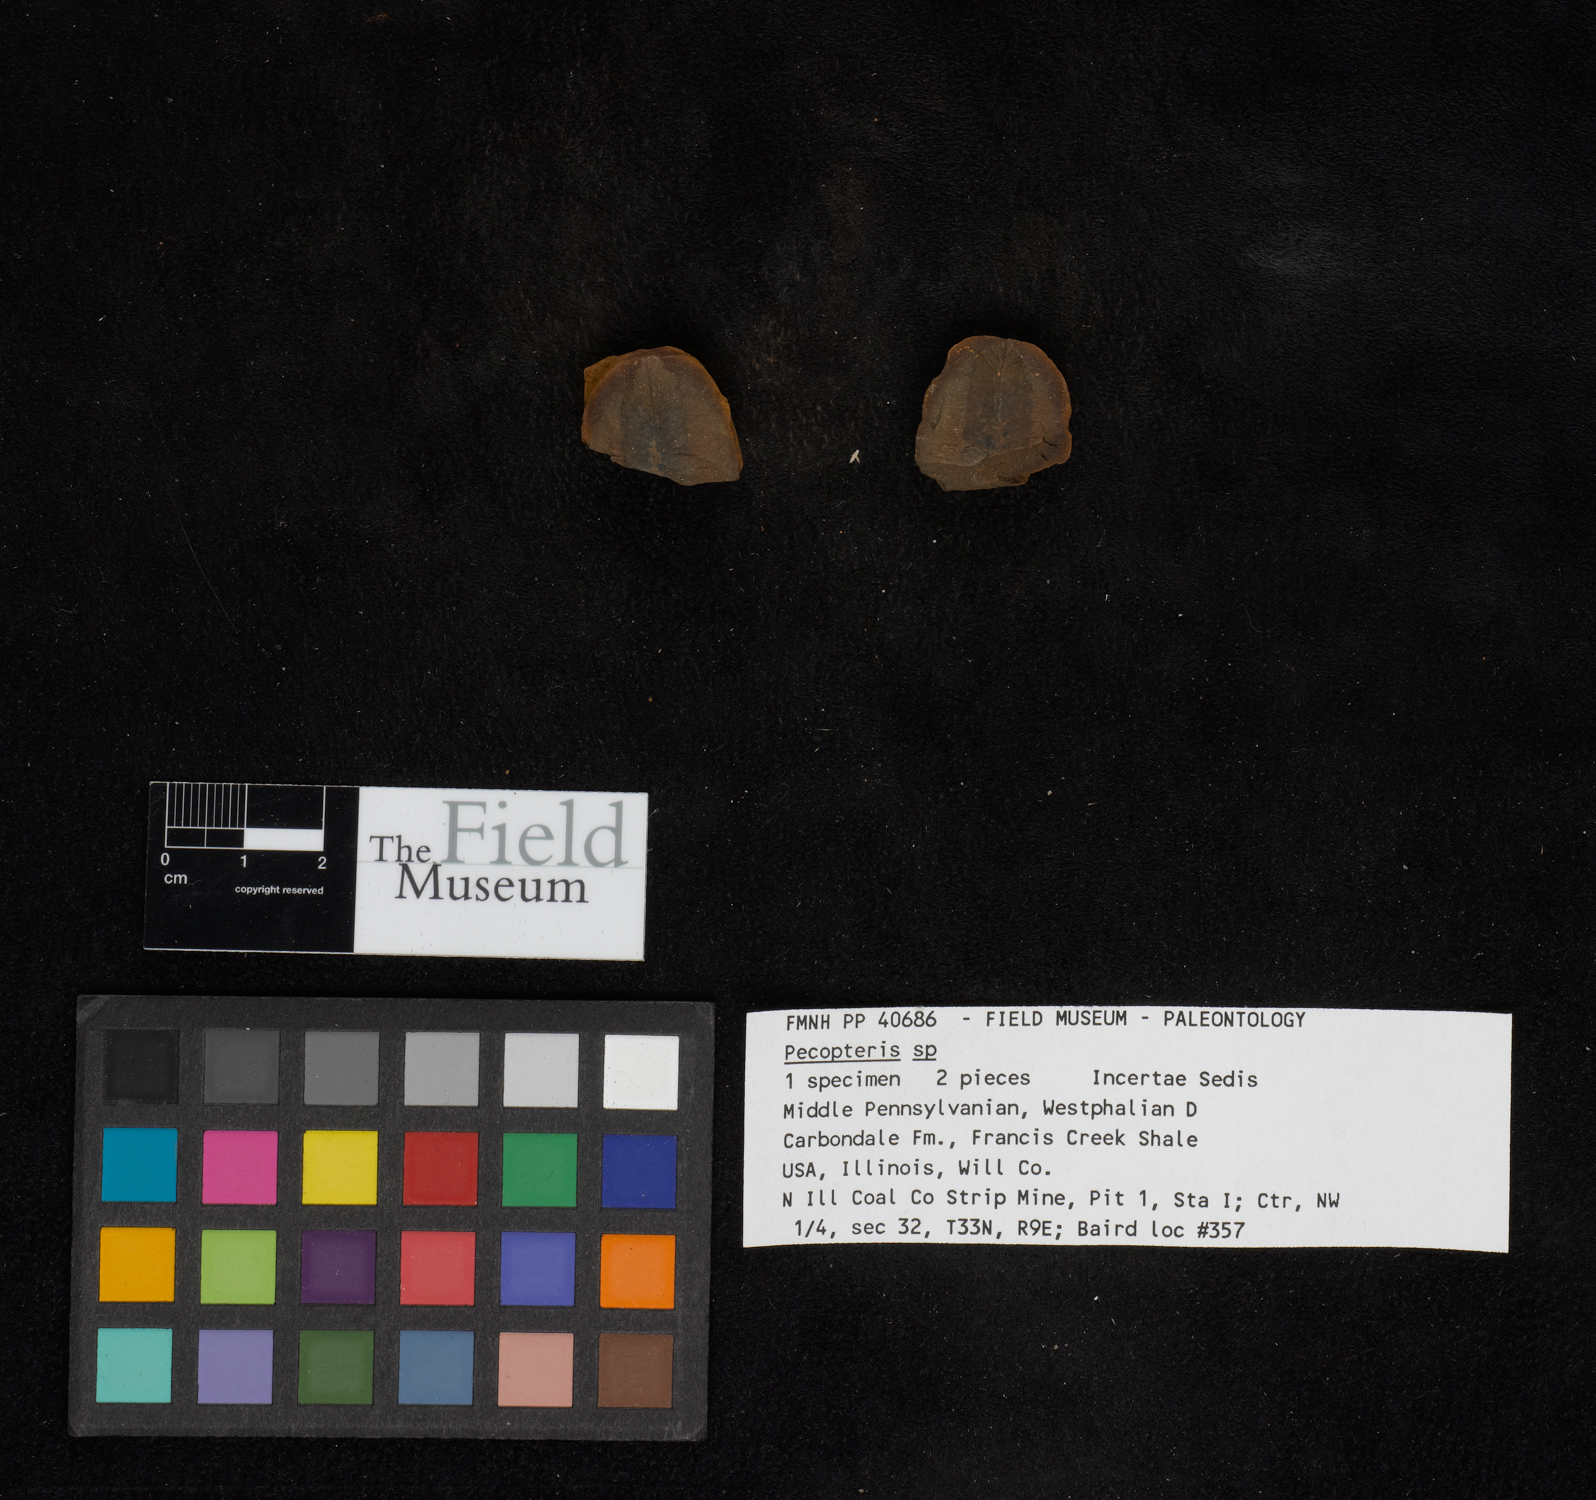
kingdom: Plantae
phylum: Tracheophyta
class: Polypodiopsida
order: Marattiales
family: Asterothecaceae
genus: Pecopteris
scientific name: Pecopteris
